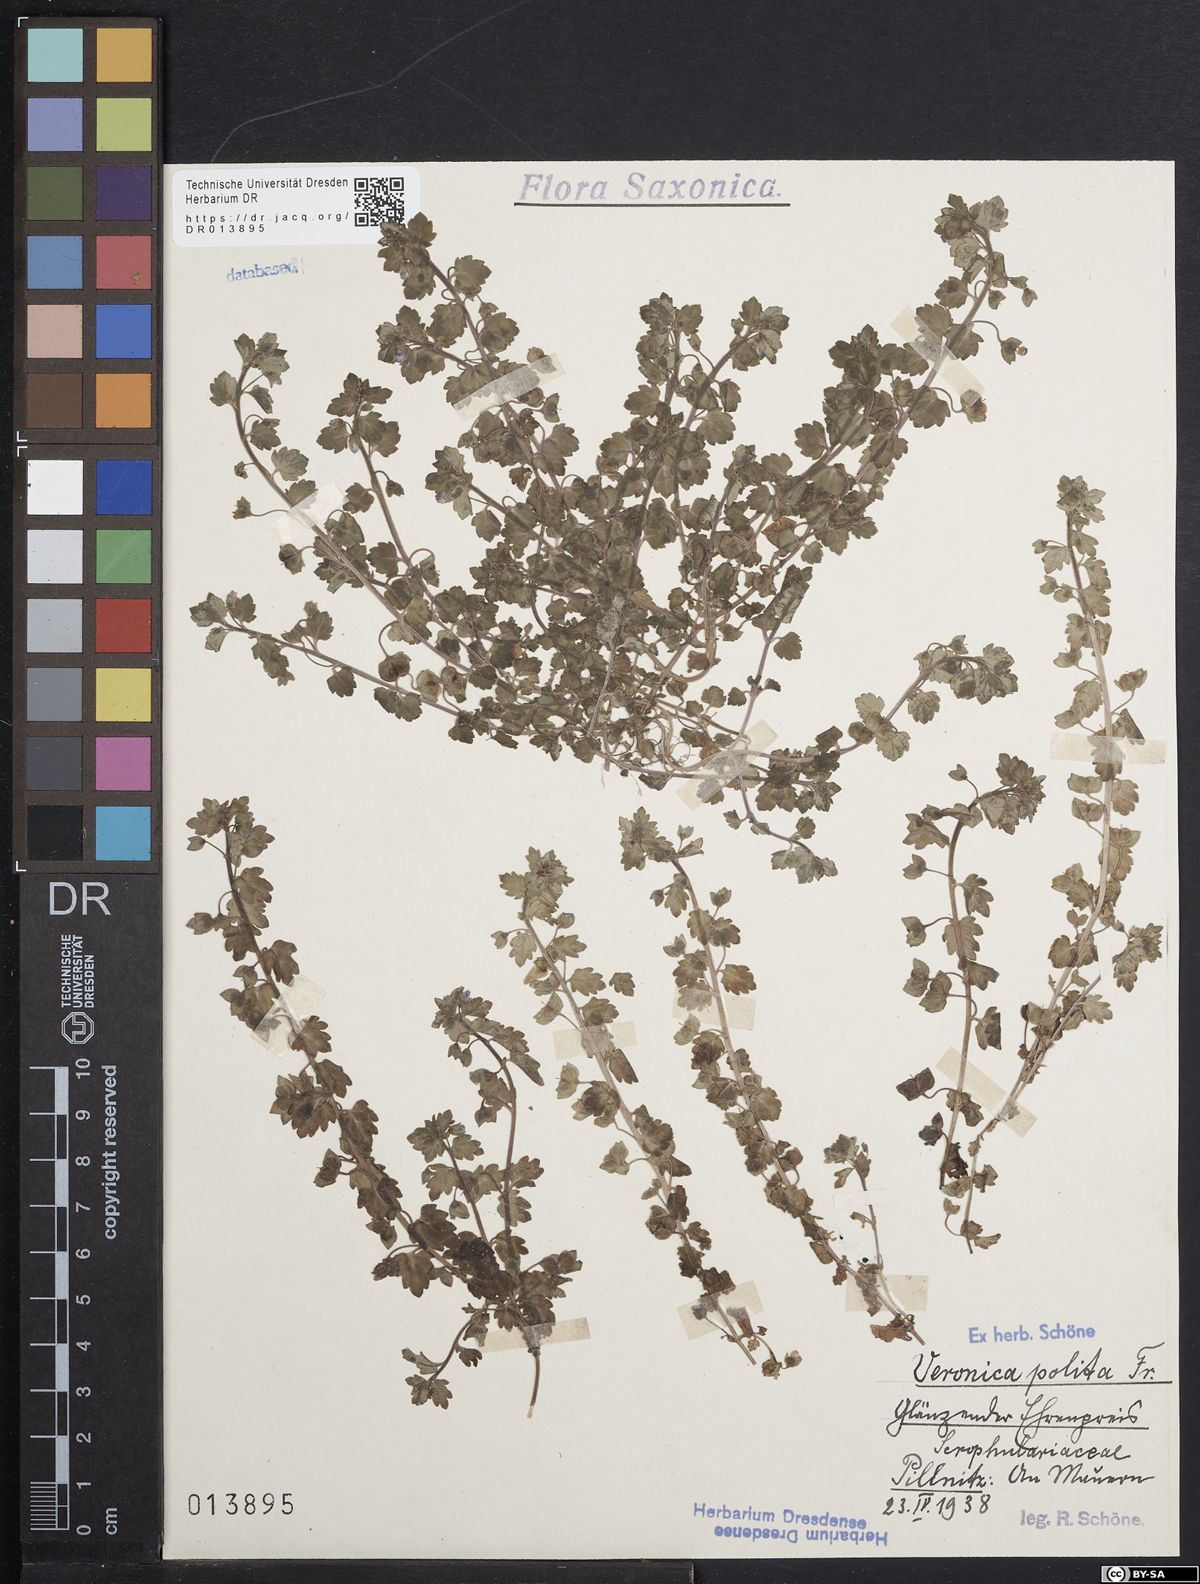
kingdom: Plantae
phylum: Tracheophyta
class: Magnoliopsida
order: Lamiales
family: Plantaginaceae
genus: Veronica
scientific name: Veronica polita
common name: Grey field-speedwell
